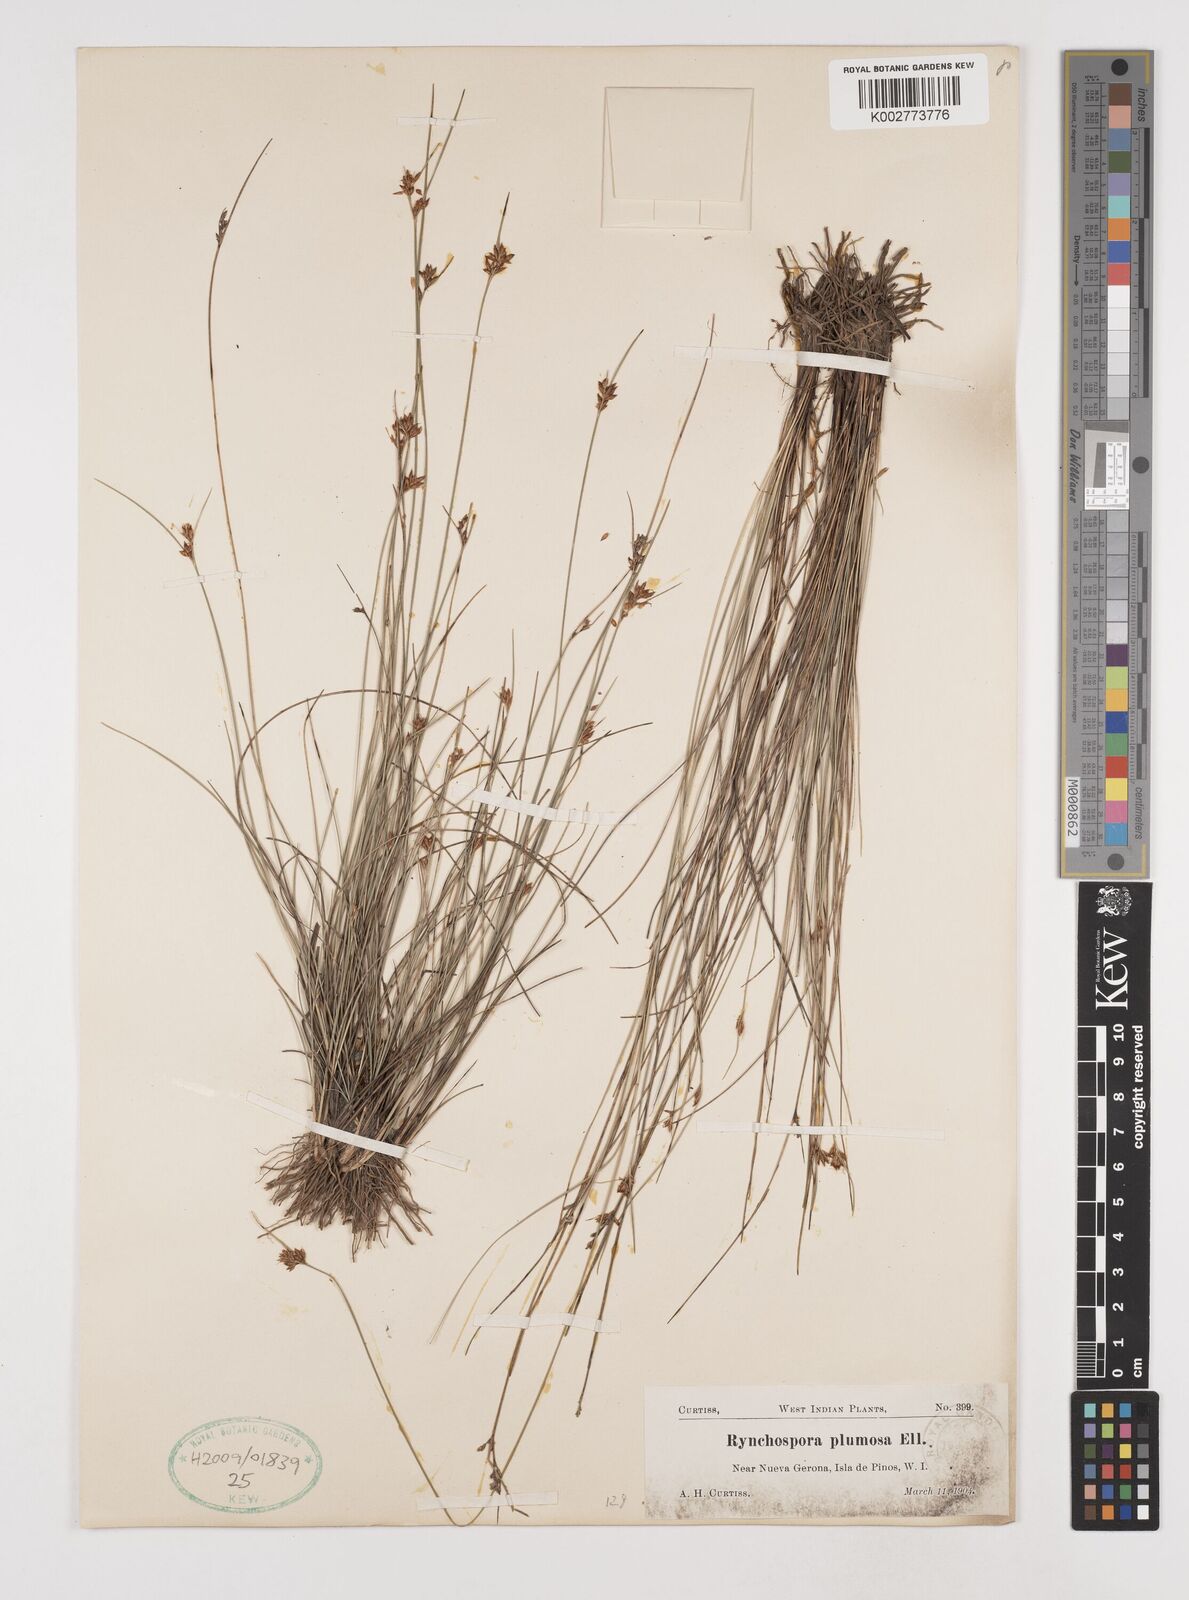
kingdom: Plantae
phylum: Tracheophyta
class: Liliopsida
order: Poales
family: Cyperaceae
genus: Rhynchospora
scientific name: Rhynchospora plumosa
